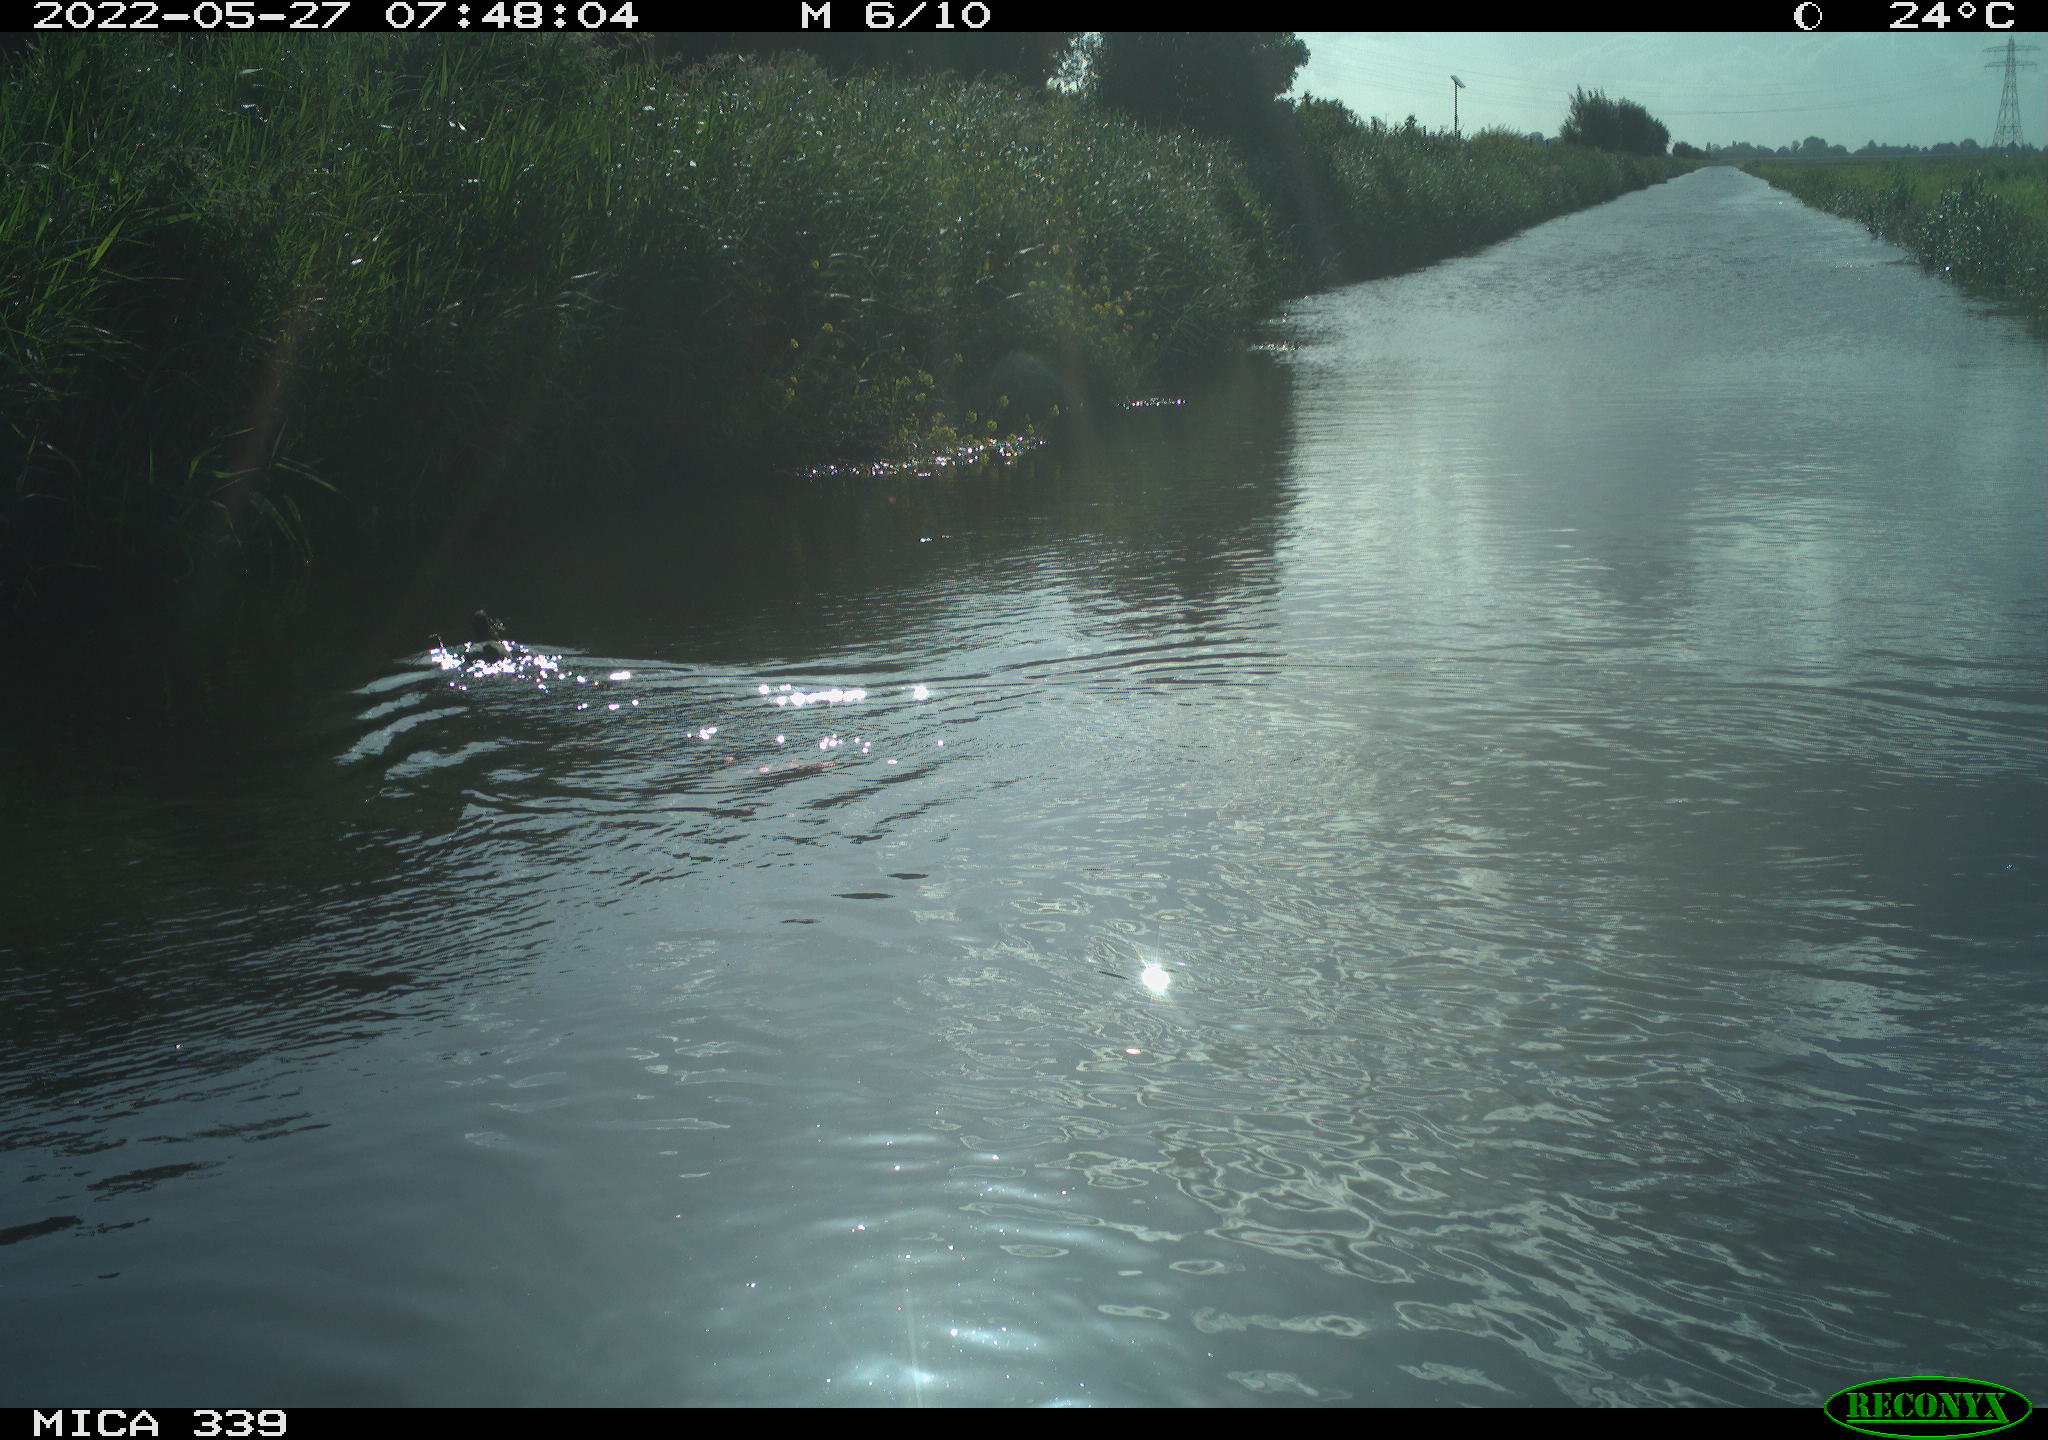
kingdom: Animalia
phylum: Chordata
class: Aves
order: Gruiformes
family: Rallidae
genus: Fulica
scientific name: Fulica atra
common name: Eurasian coot
